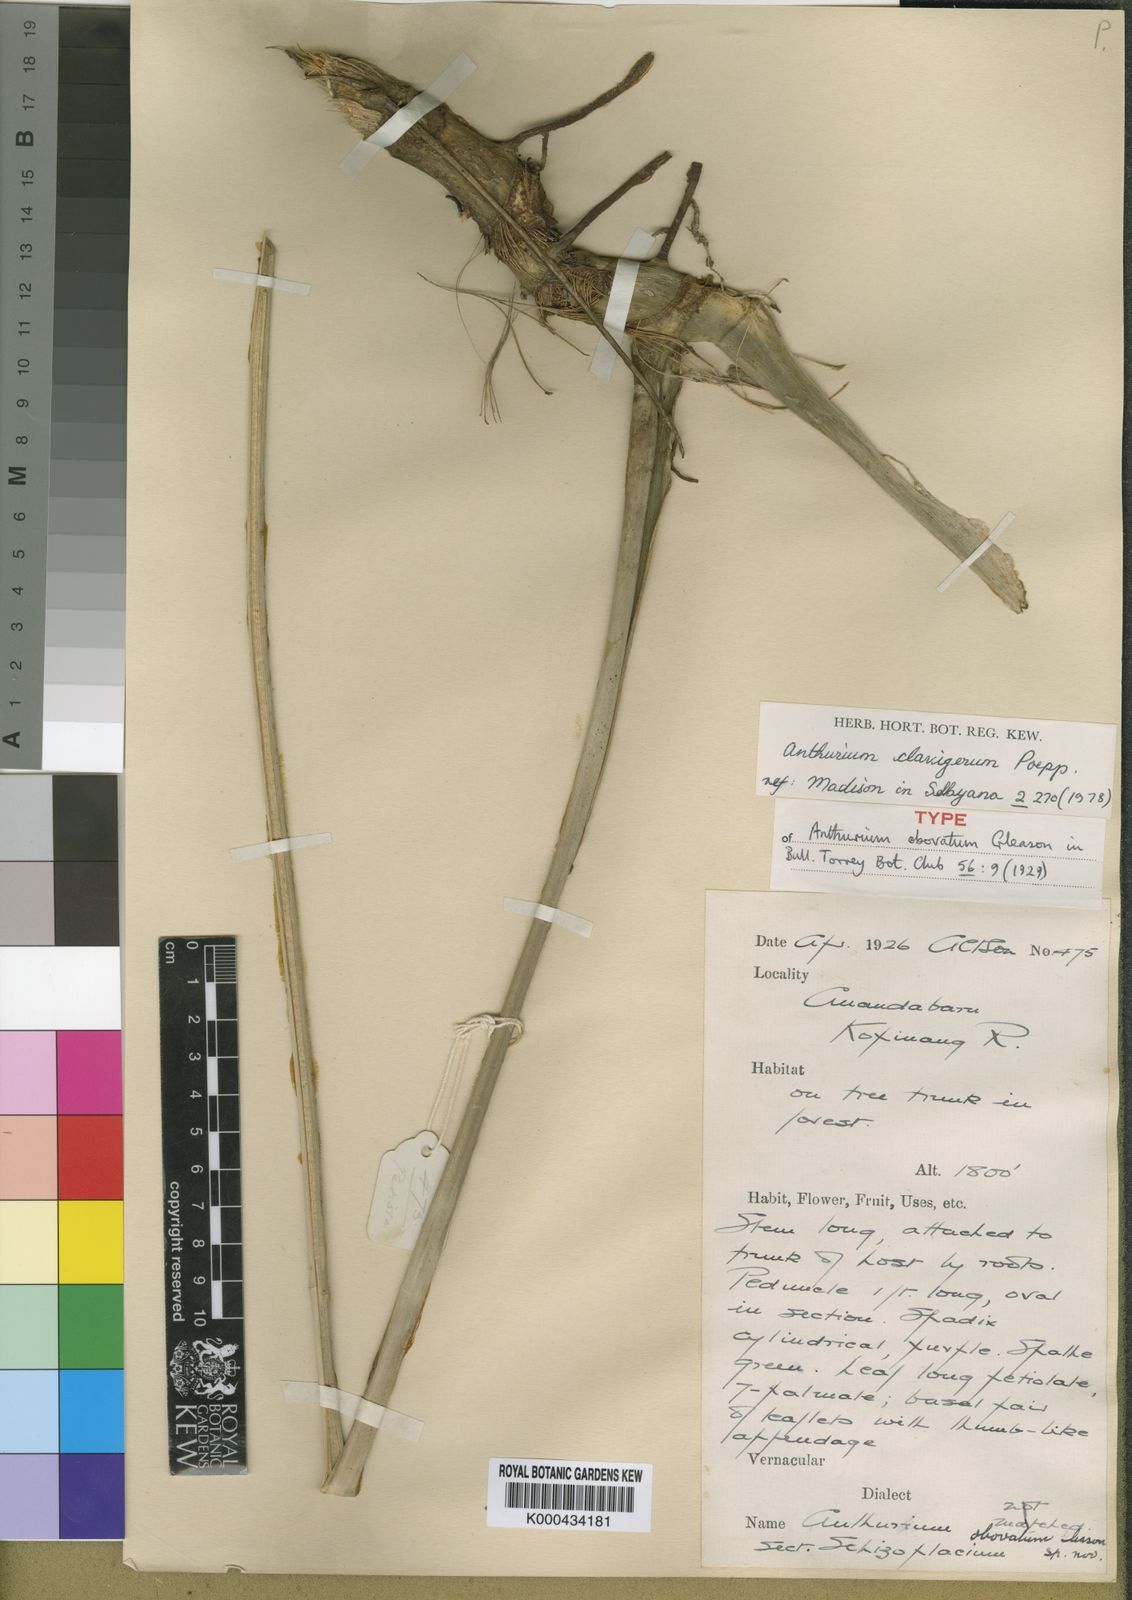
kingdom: Plantae
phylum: Tracheophyta
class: Liliopsida
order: Alismatales
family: Araceae
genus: Anthurium
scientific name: Anthurium sinuatum
